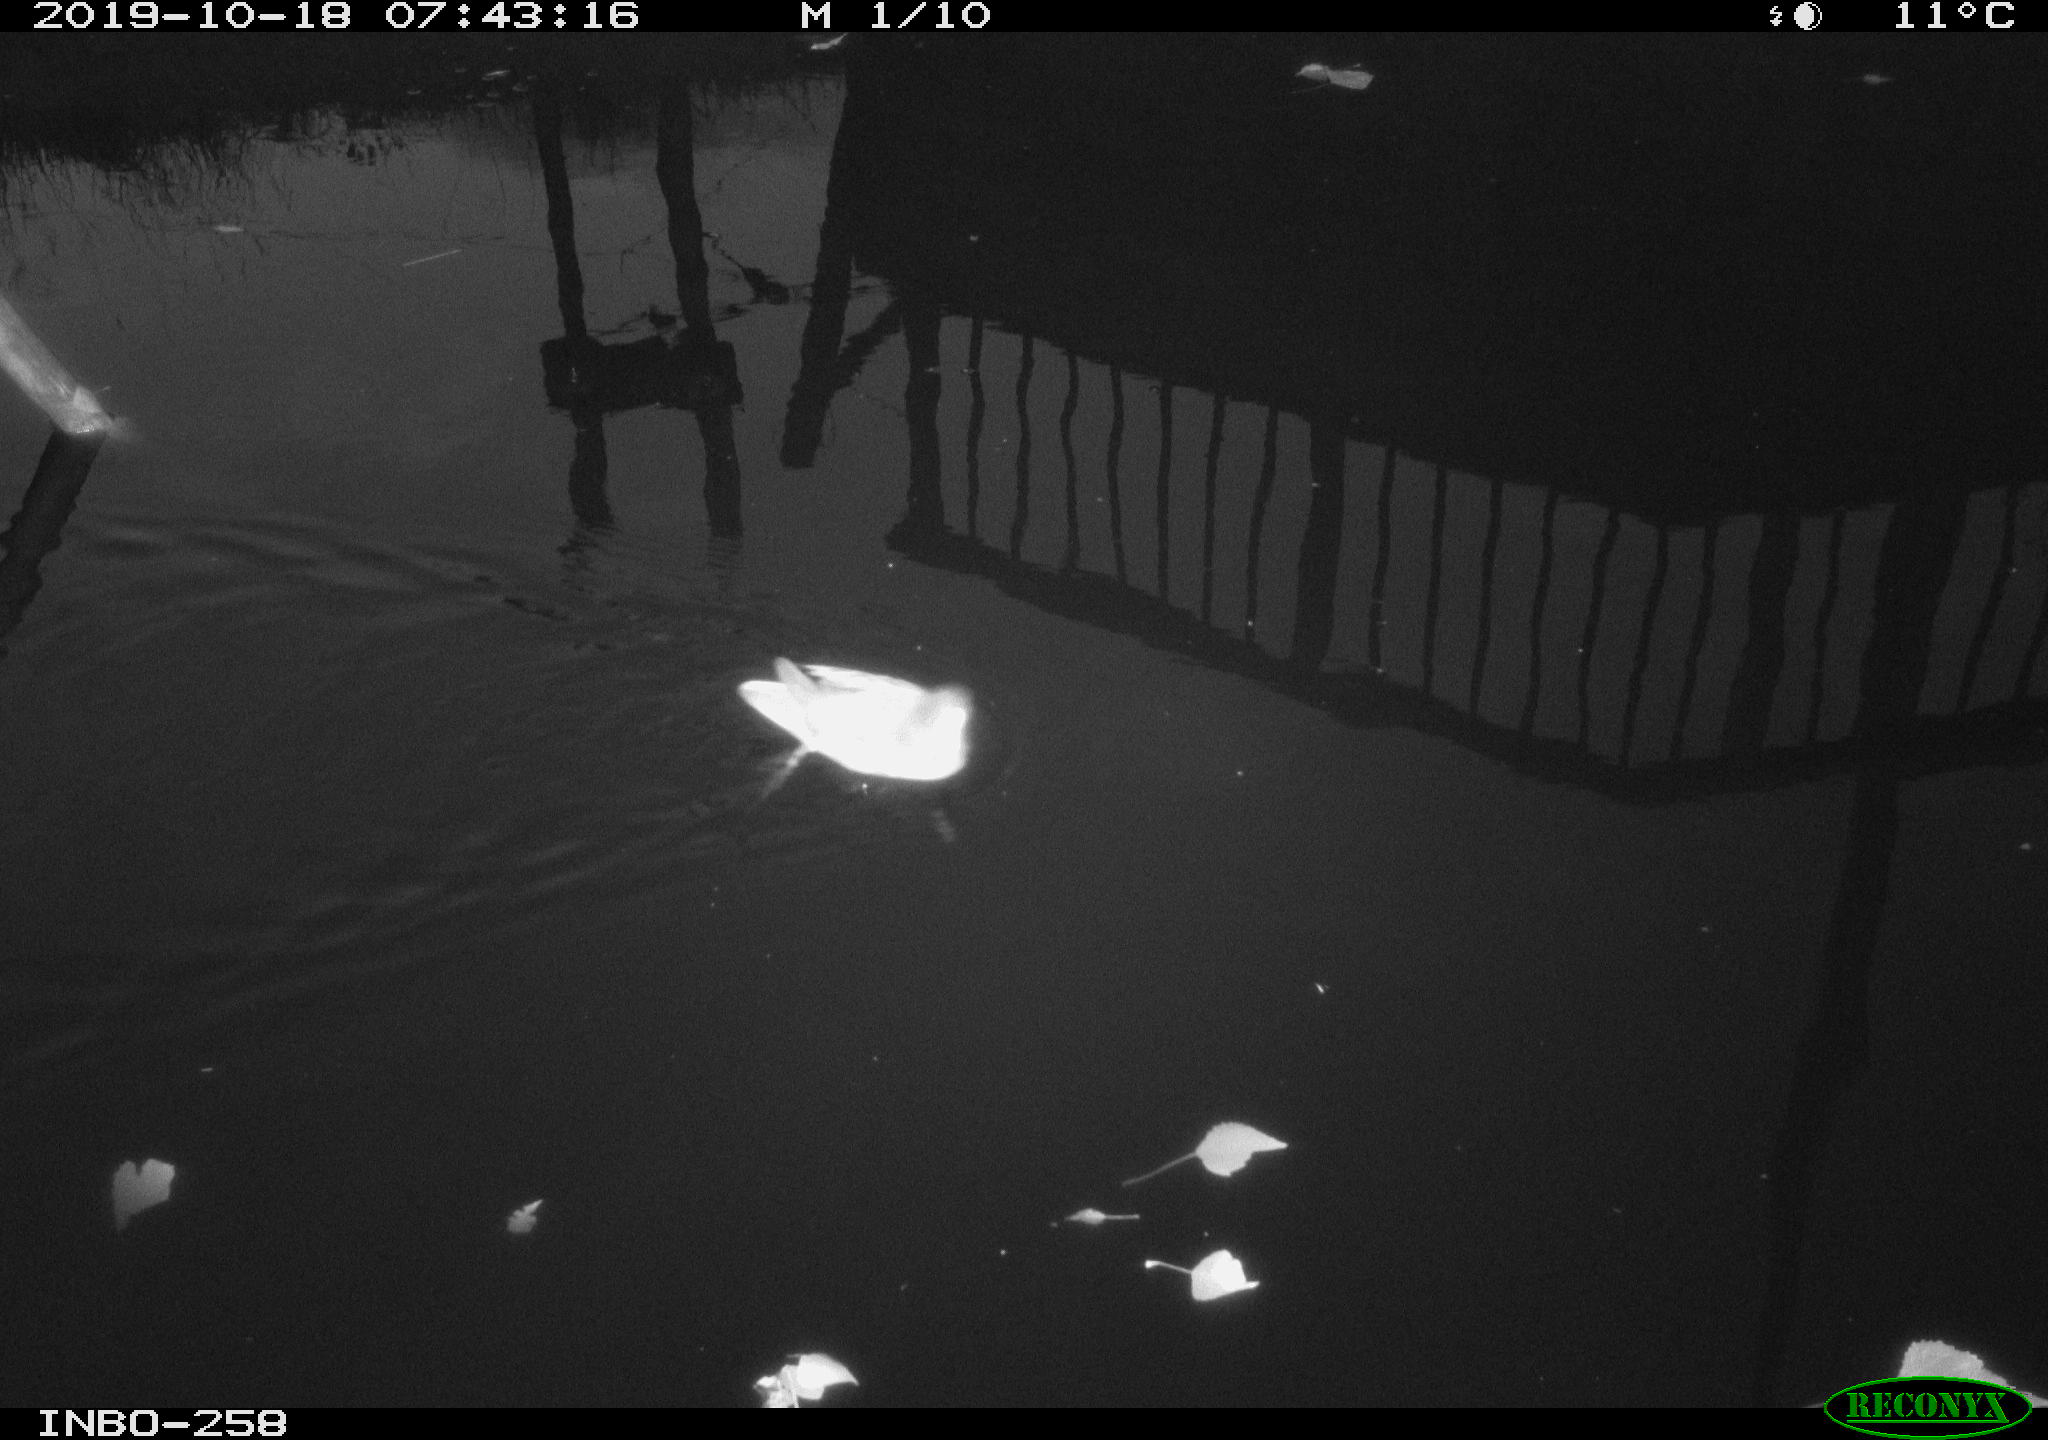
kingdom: Animalia
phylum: Chordata
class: Aves
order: Gruiformes
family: Rallidae
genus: Gallinula
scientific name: Gallinula chloropus
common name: Common moorhen
